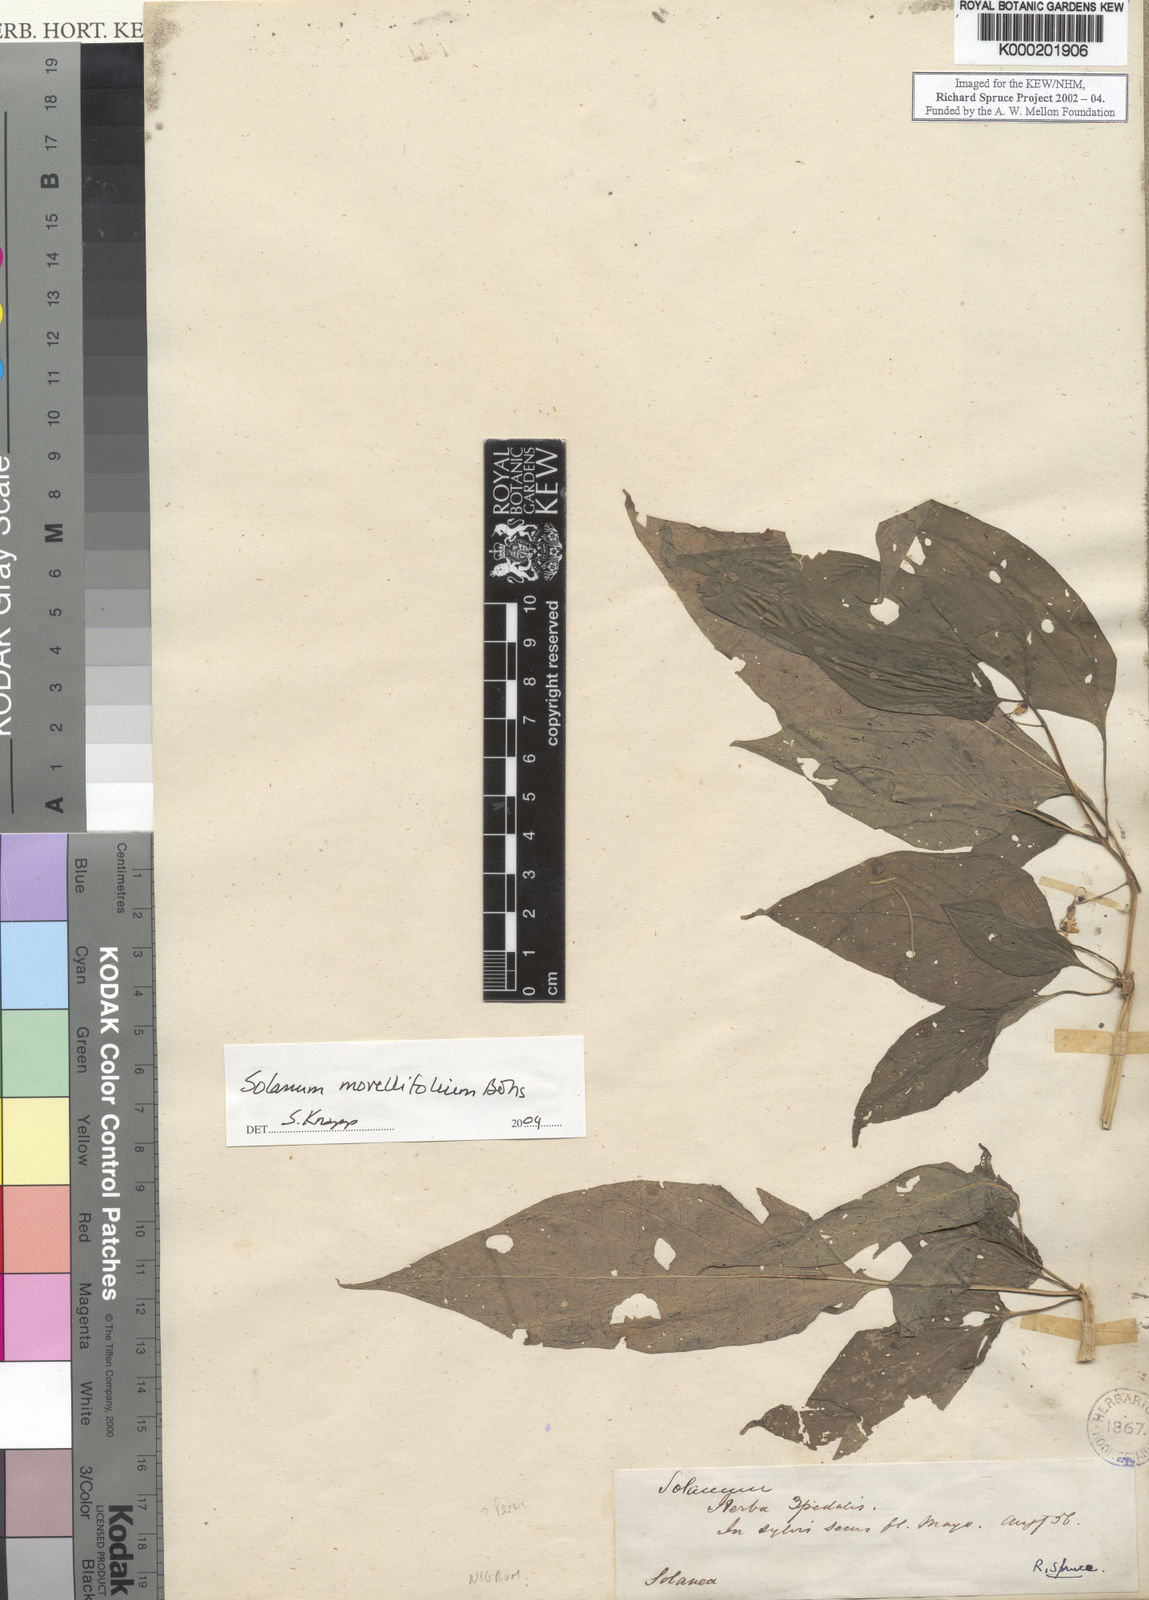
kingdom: Plantae
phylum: Tracheophyta
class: Magnoliopsida
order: Solanales
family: Solanaceae
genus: Solanum
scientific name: Solanum morellifolium
